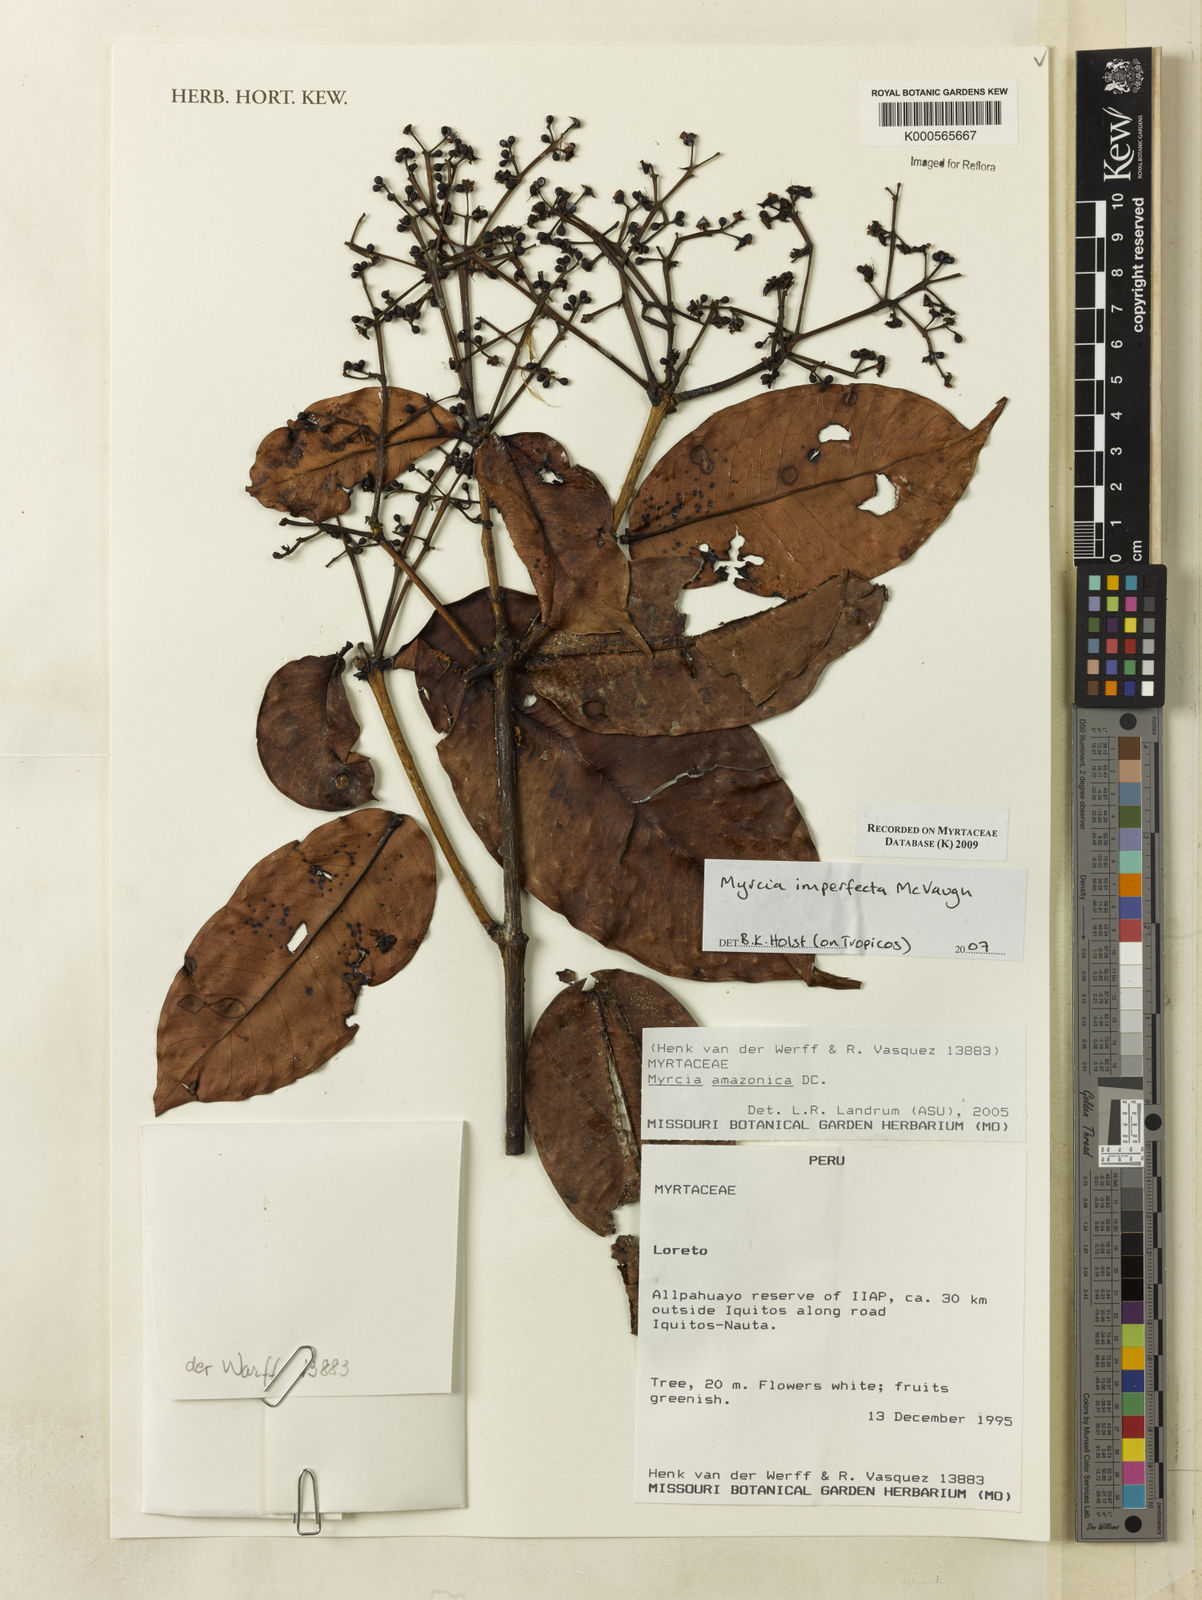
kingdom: Plantae
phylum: Tracheophyta
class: Magnoliopsida
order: Myrtales
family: Myrtaceae
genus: Myrcia
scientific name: Myrcia imperfecta
